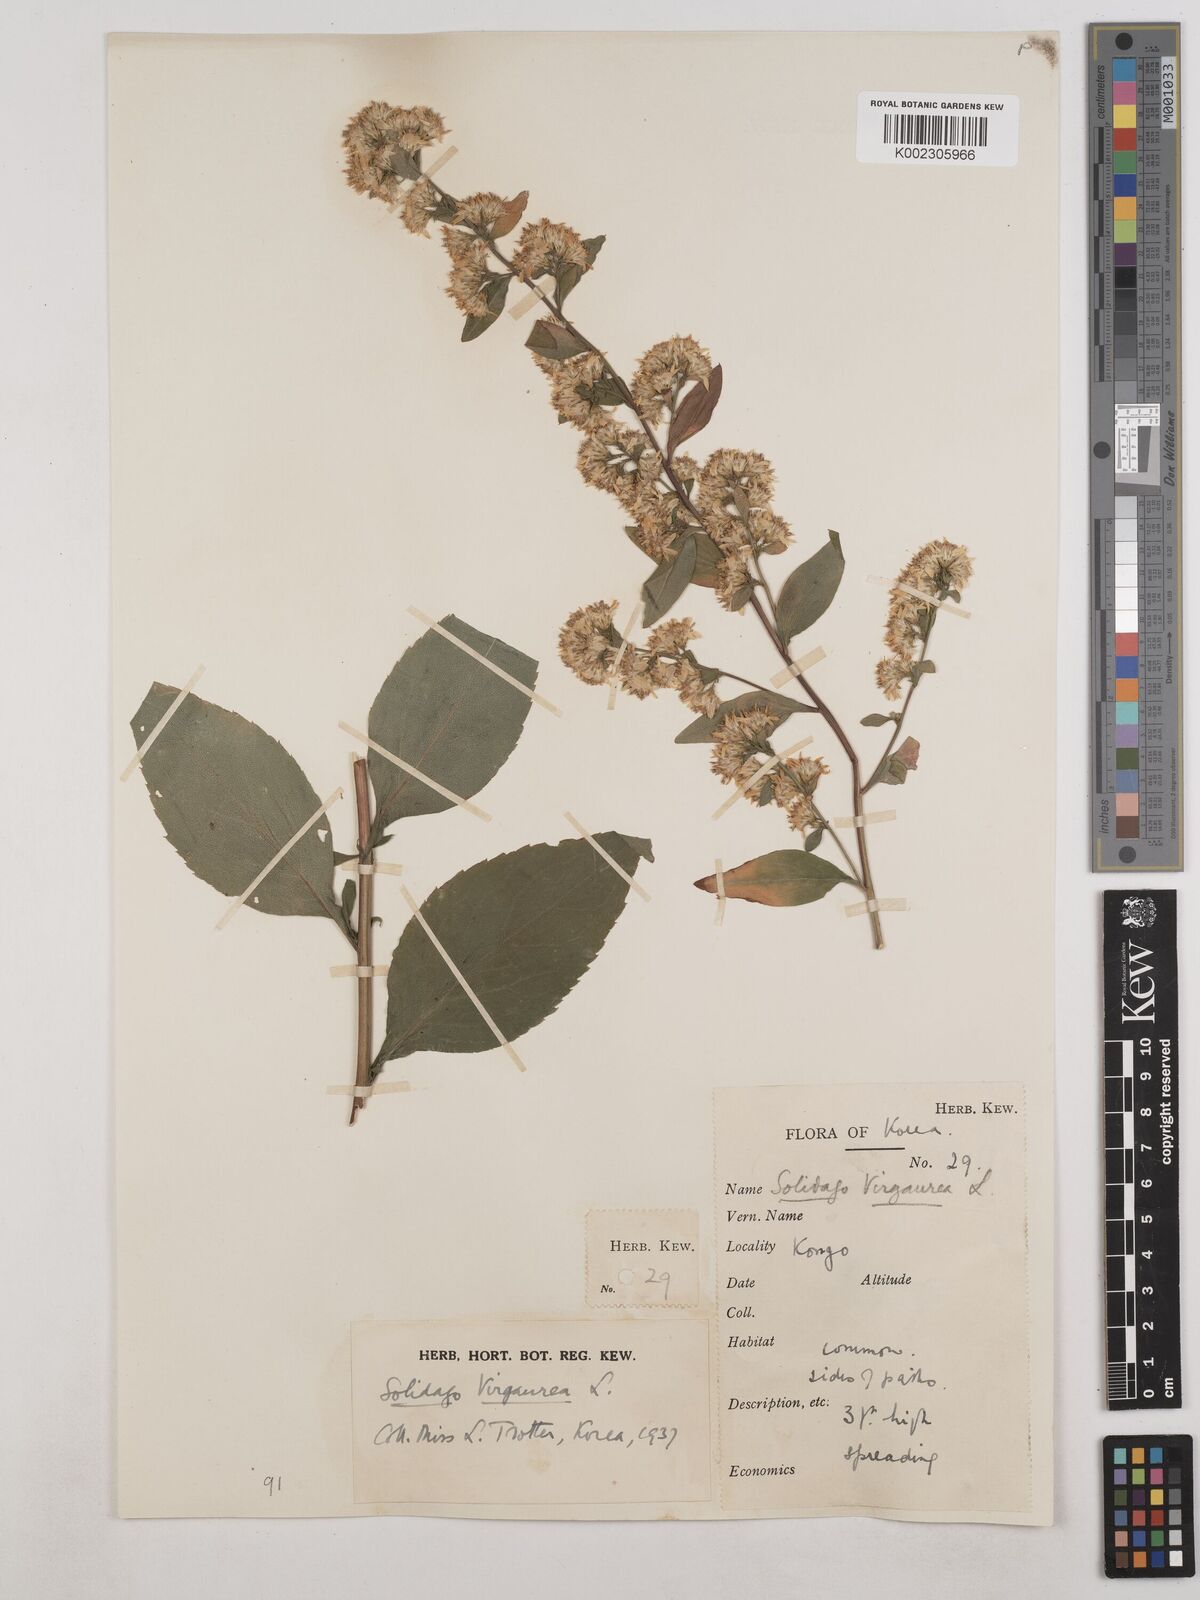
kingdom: Plantae
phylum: Tracheophyta
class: Magnoliopsida
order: Asterales
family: Asteraceae
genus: Solidago
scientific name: Solidago virgaurea
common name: Goldenrod
